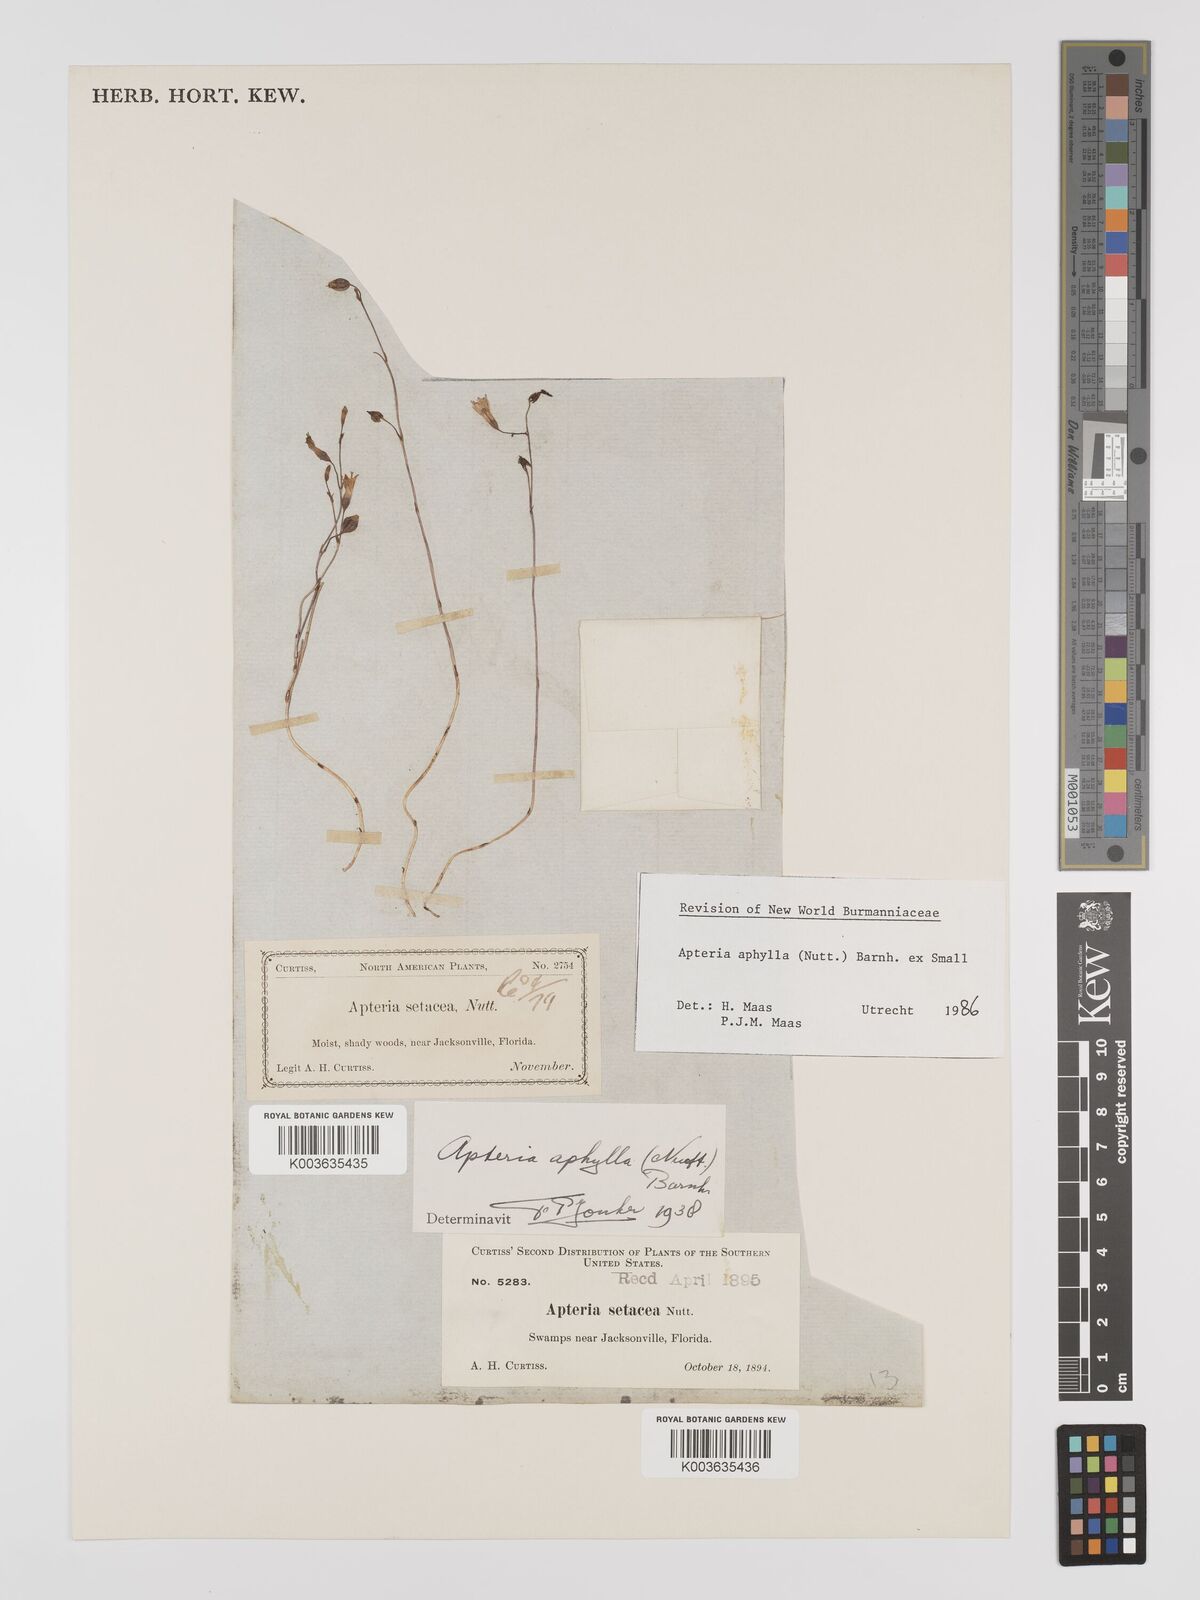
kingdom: Plantae
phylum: Tracheophyta
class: Liliopsida
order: Dioscoreales
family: Burmanniaceae
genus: Apteria
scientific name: Apteria aphylla
